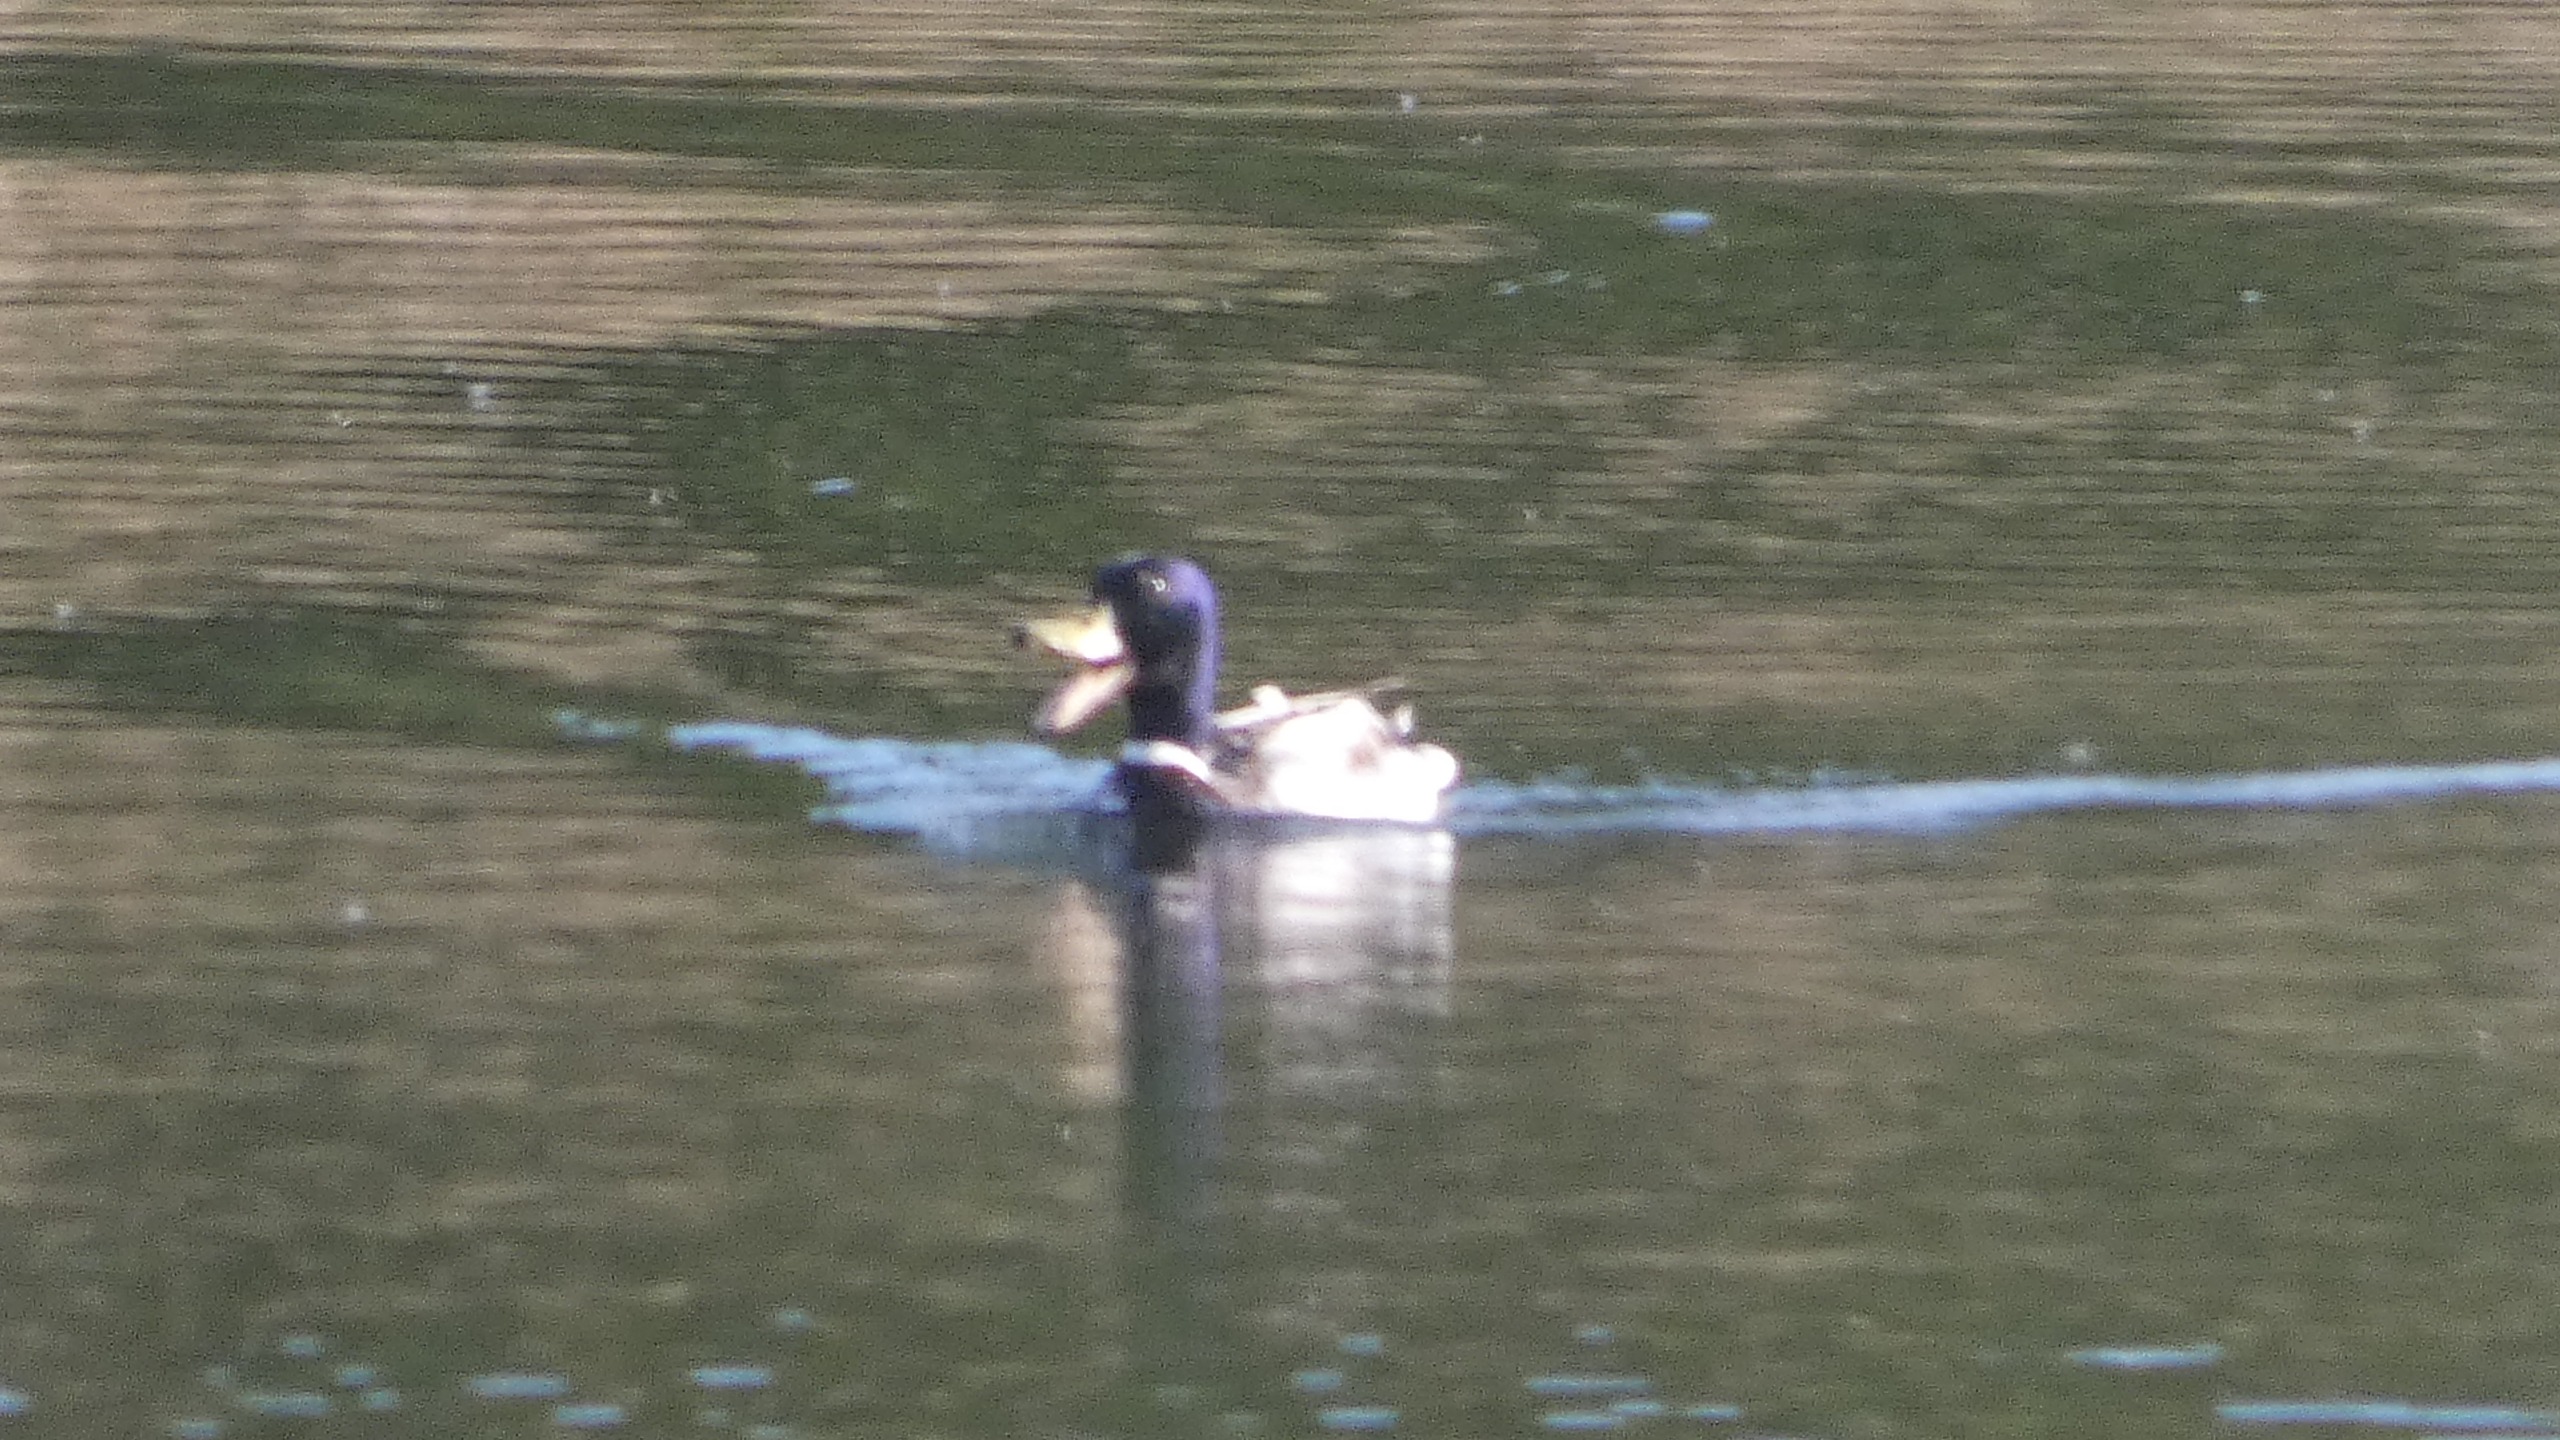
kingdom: Animalia
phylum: Chordata
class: Aves
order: Anseriformes
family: Anatidae
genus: Anas
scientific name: Anas platyrhynchos
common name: Gråand
